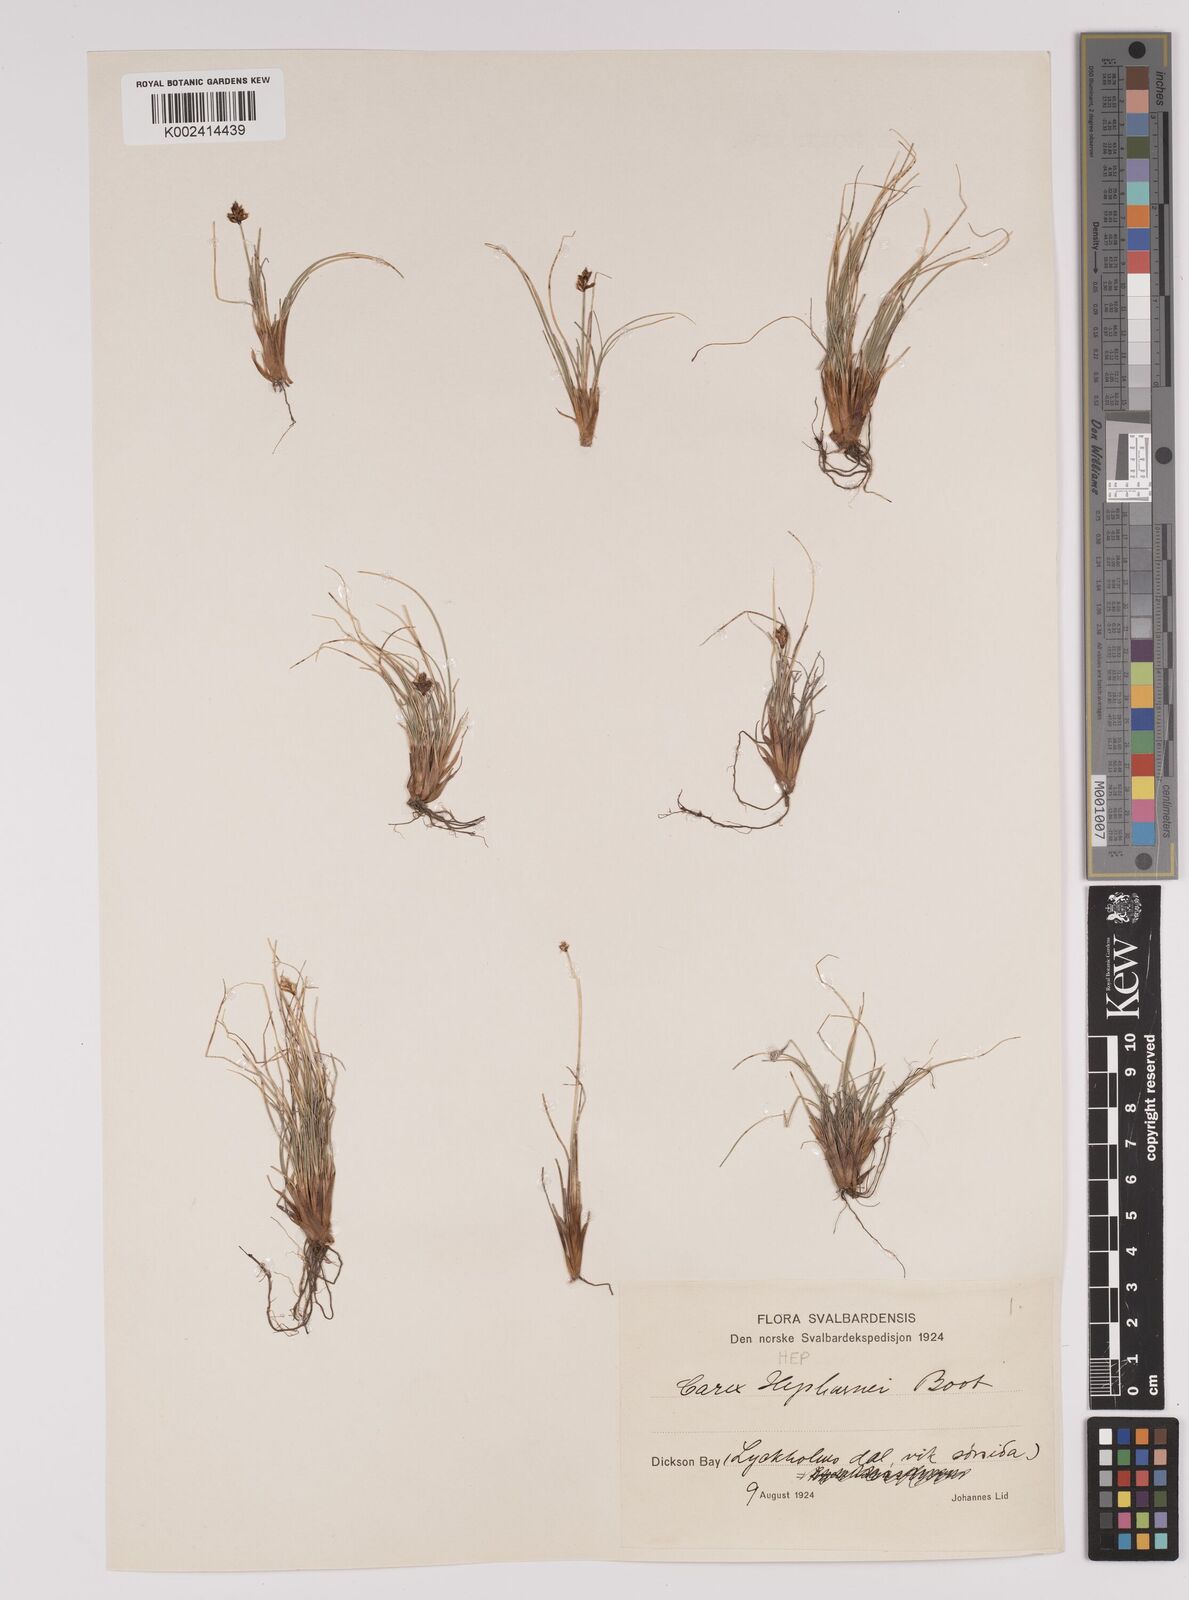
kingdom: Plantae
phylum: Tracheophyta
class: Liliopsida
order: Poales
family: Cyperaceae
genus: Carex
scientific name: Carex nardina
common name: Nard sedge
